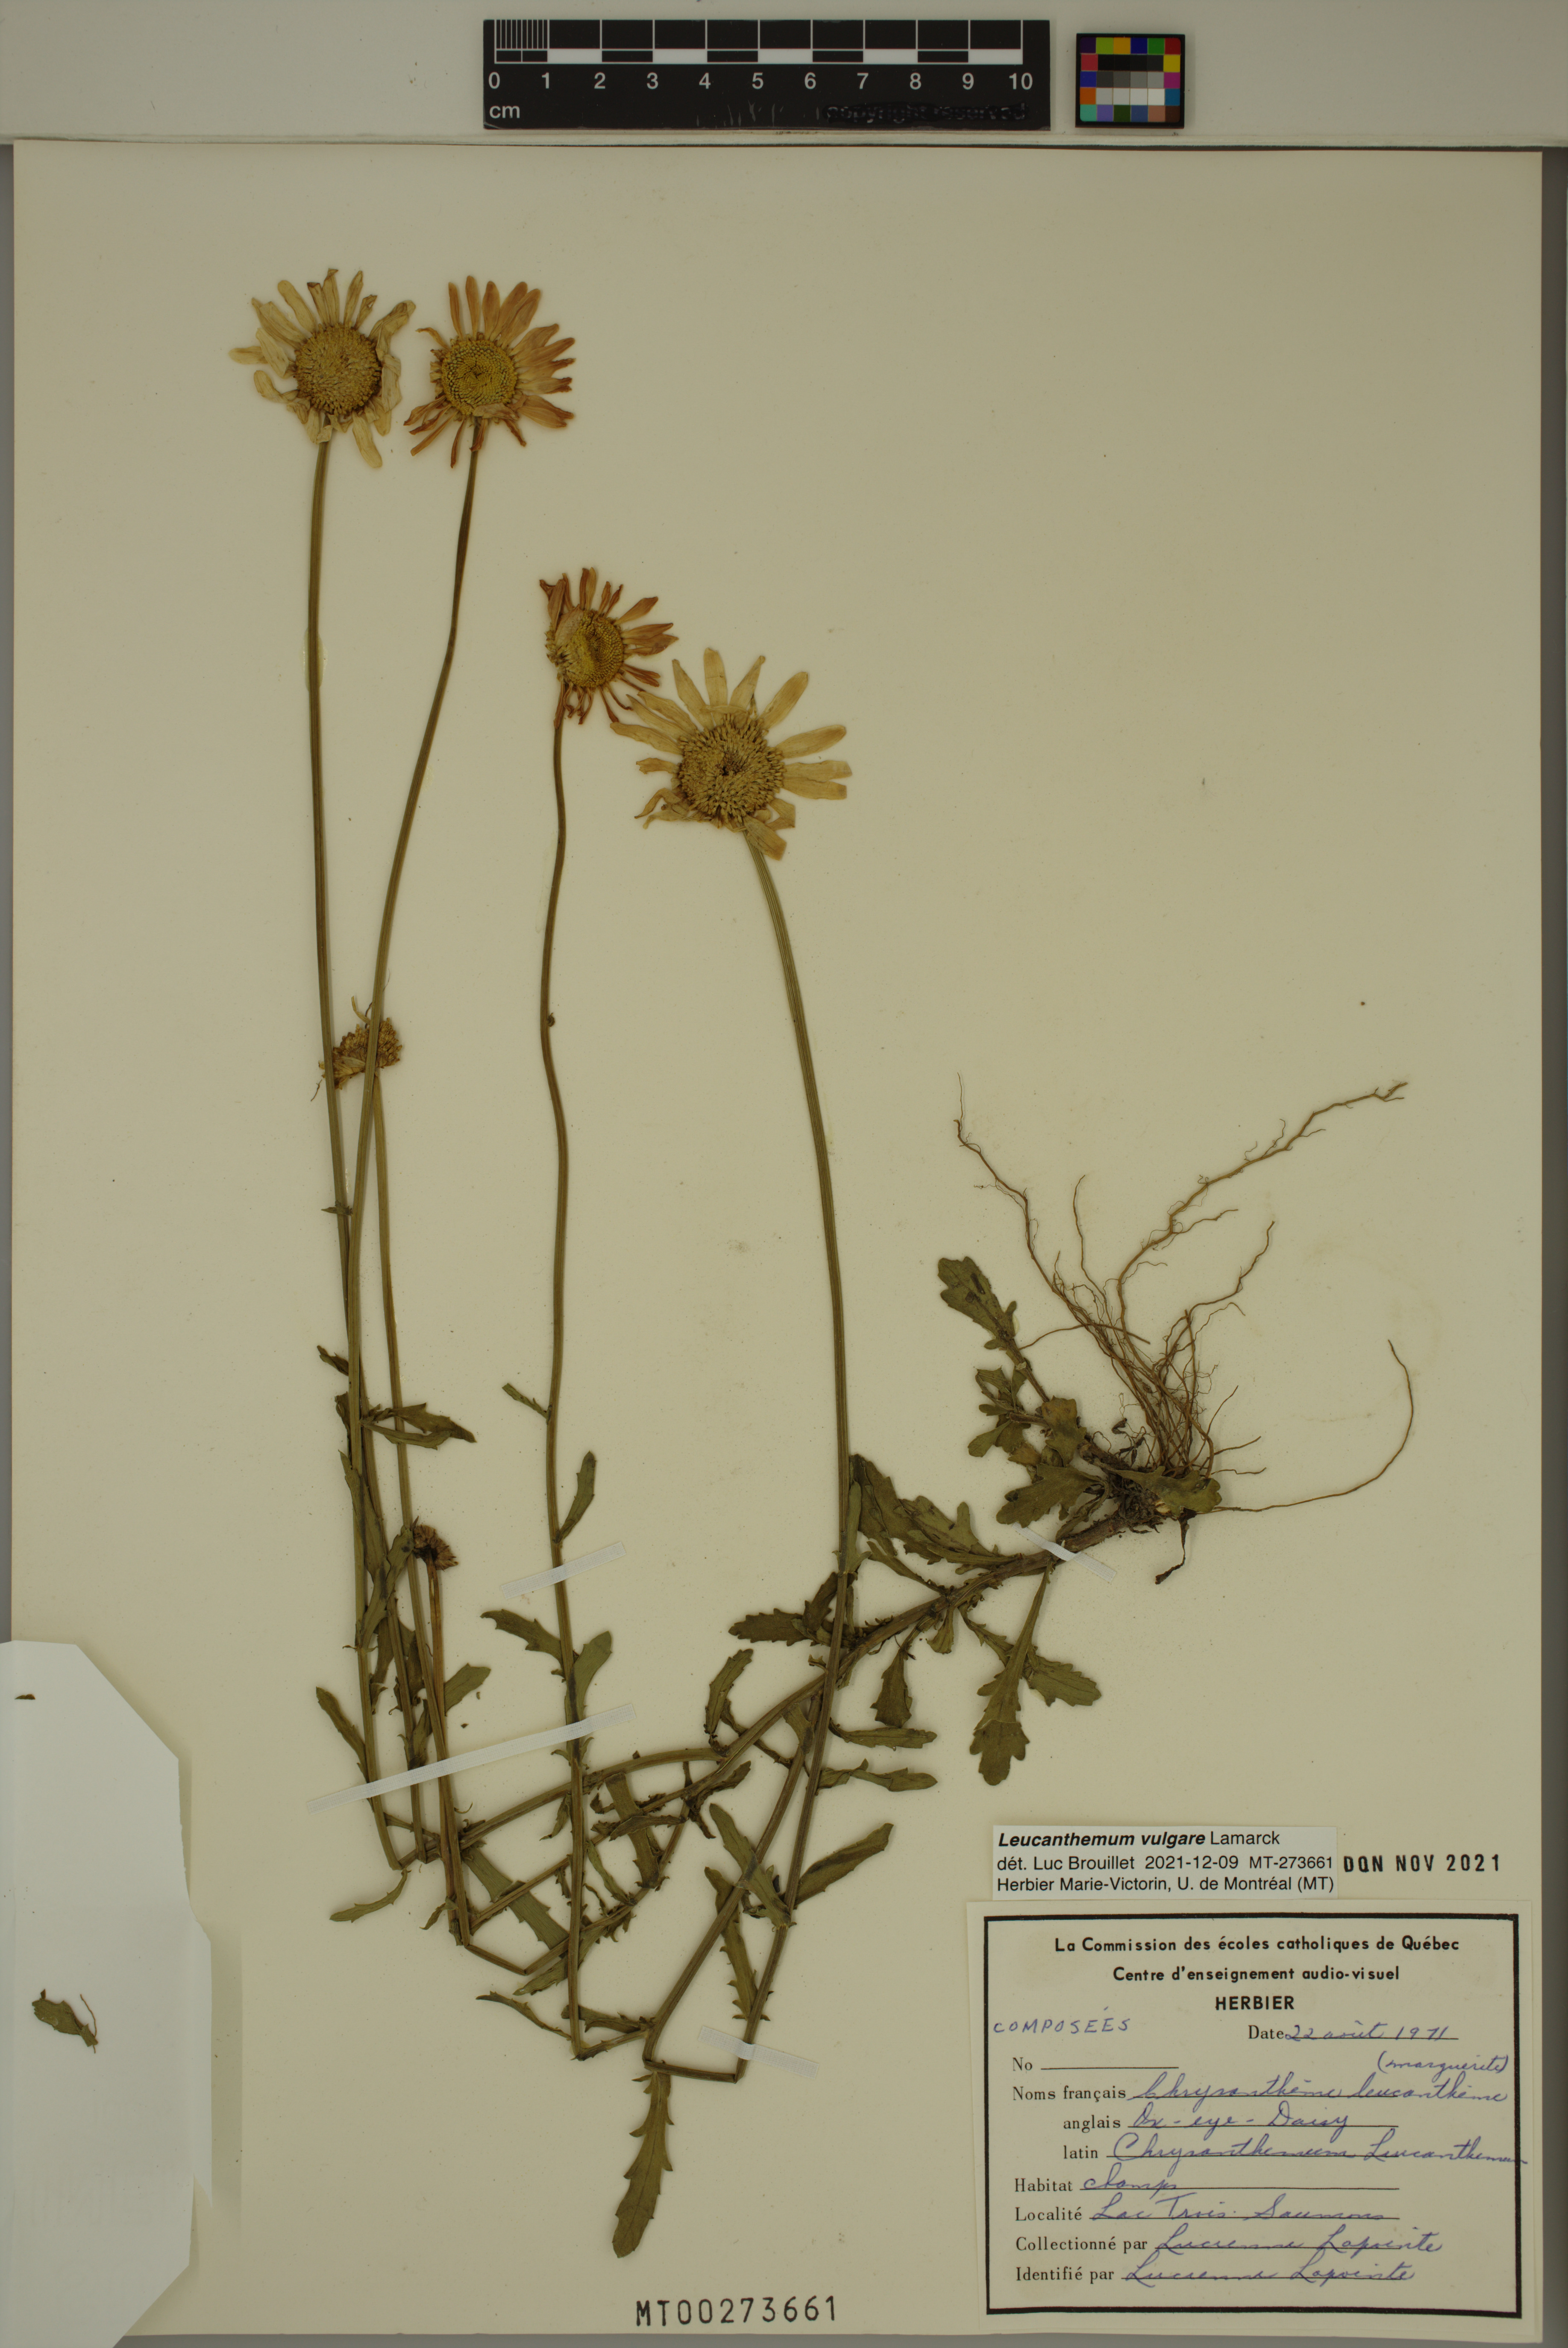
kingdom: Plantae
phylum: Tracheophyta
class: Magnoliopsida
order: Asterales
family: Asteraceae
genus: Leucanthemum
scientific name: Leucanthemum vulgare
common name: Oxeye daisy
